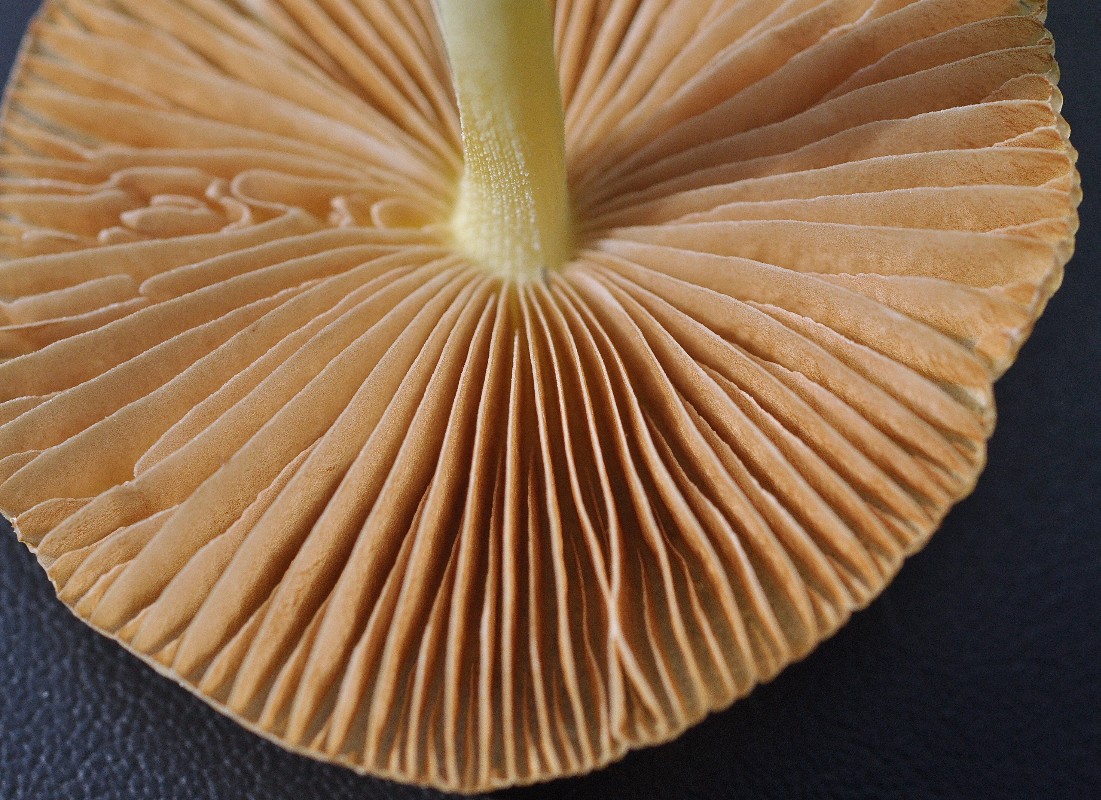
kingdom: Fungi
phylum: Basidiomycota
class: Agaricomycetes
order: Agaricales
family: Bolbitiaceae
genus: Bolbitius
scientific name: Bolbitius titubans
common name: almindelig gulhat
